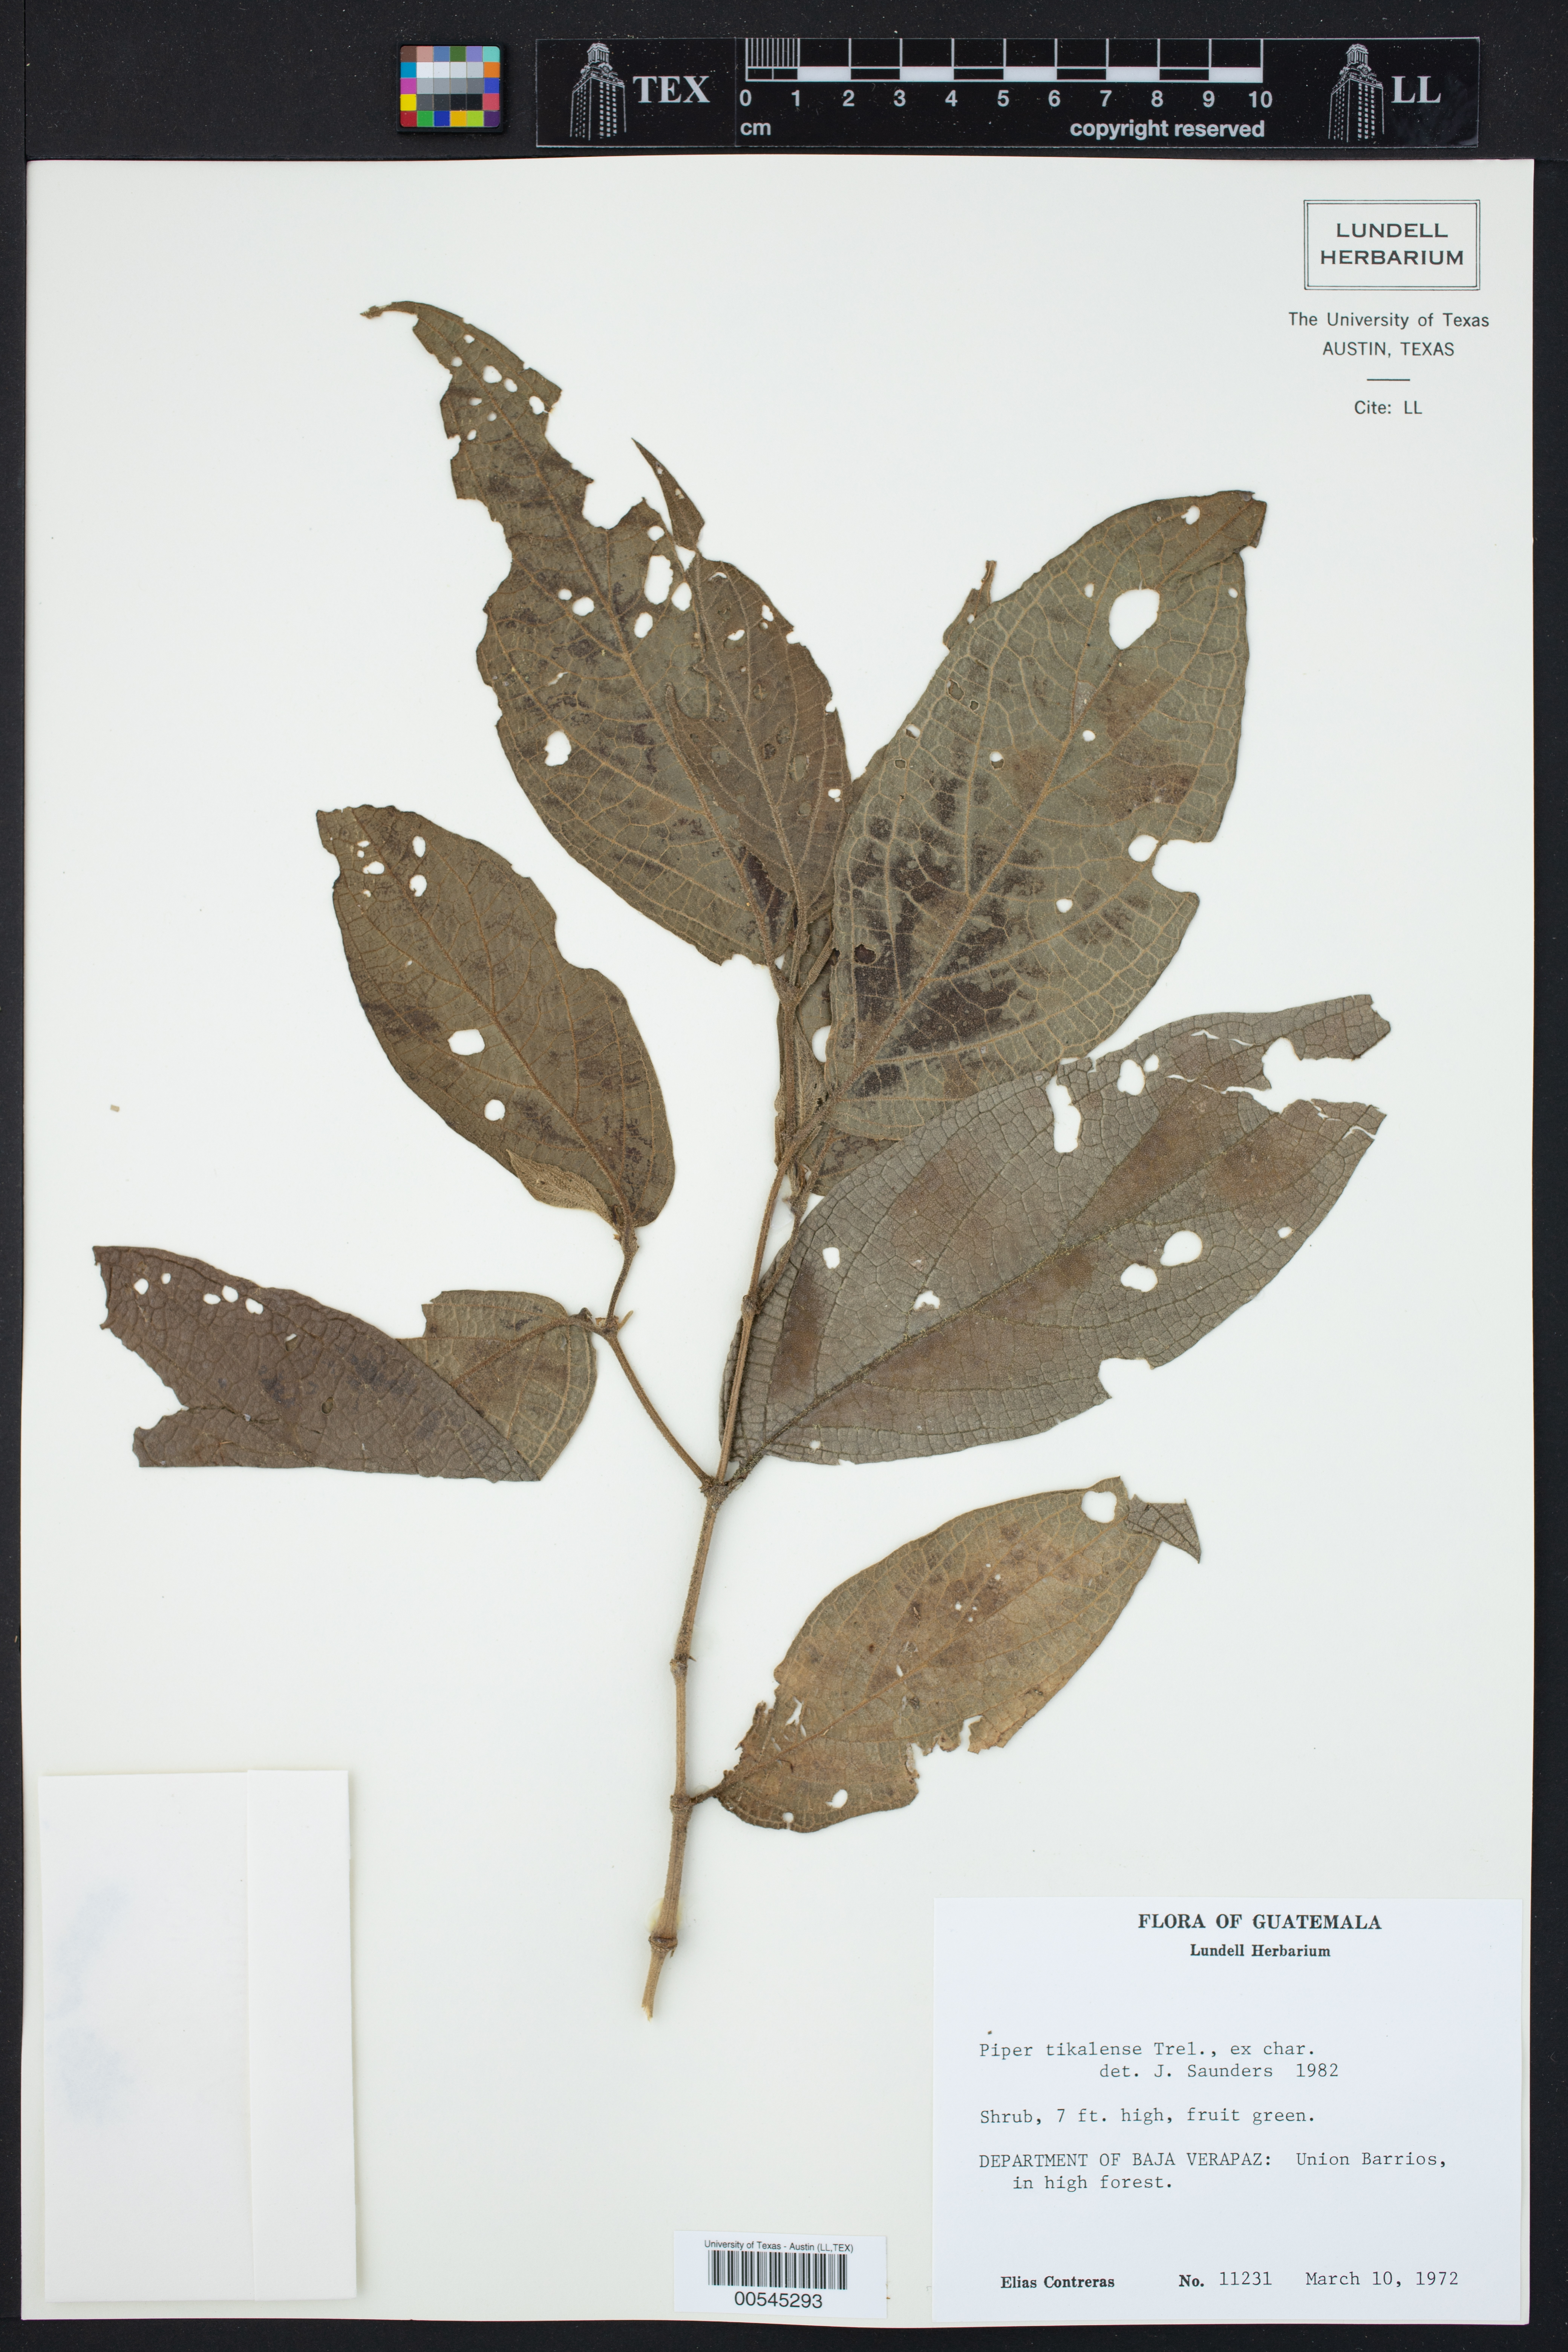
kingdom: Plantae
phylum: Tracheophyta
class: Magnoliopsida
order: Piperales
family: Piperaceae
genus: Piper
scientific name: Piper cayoense
